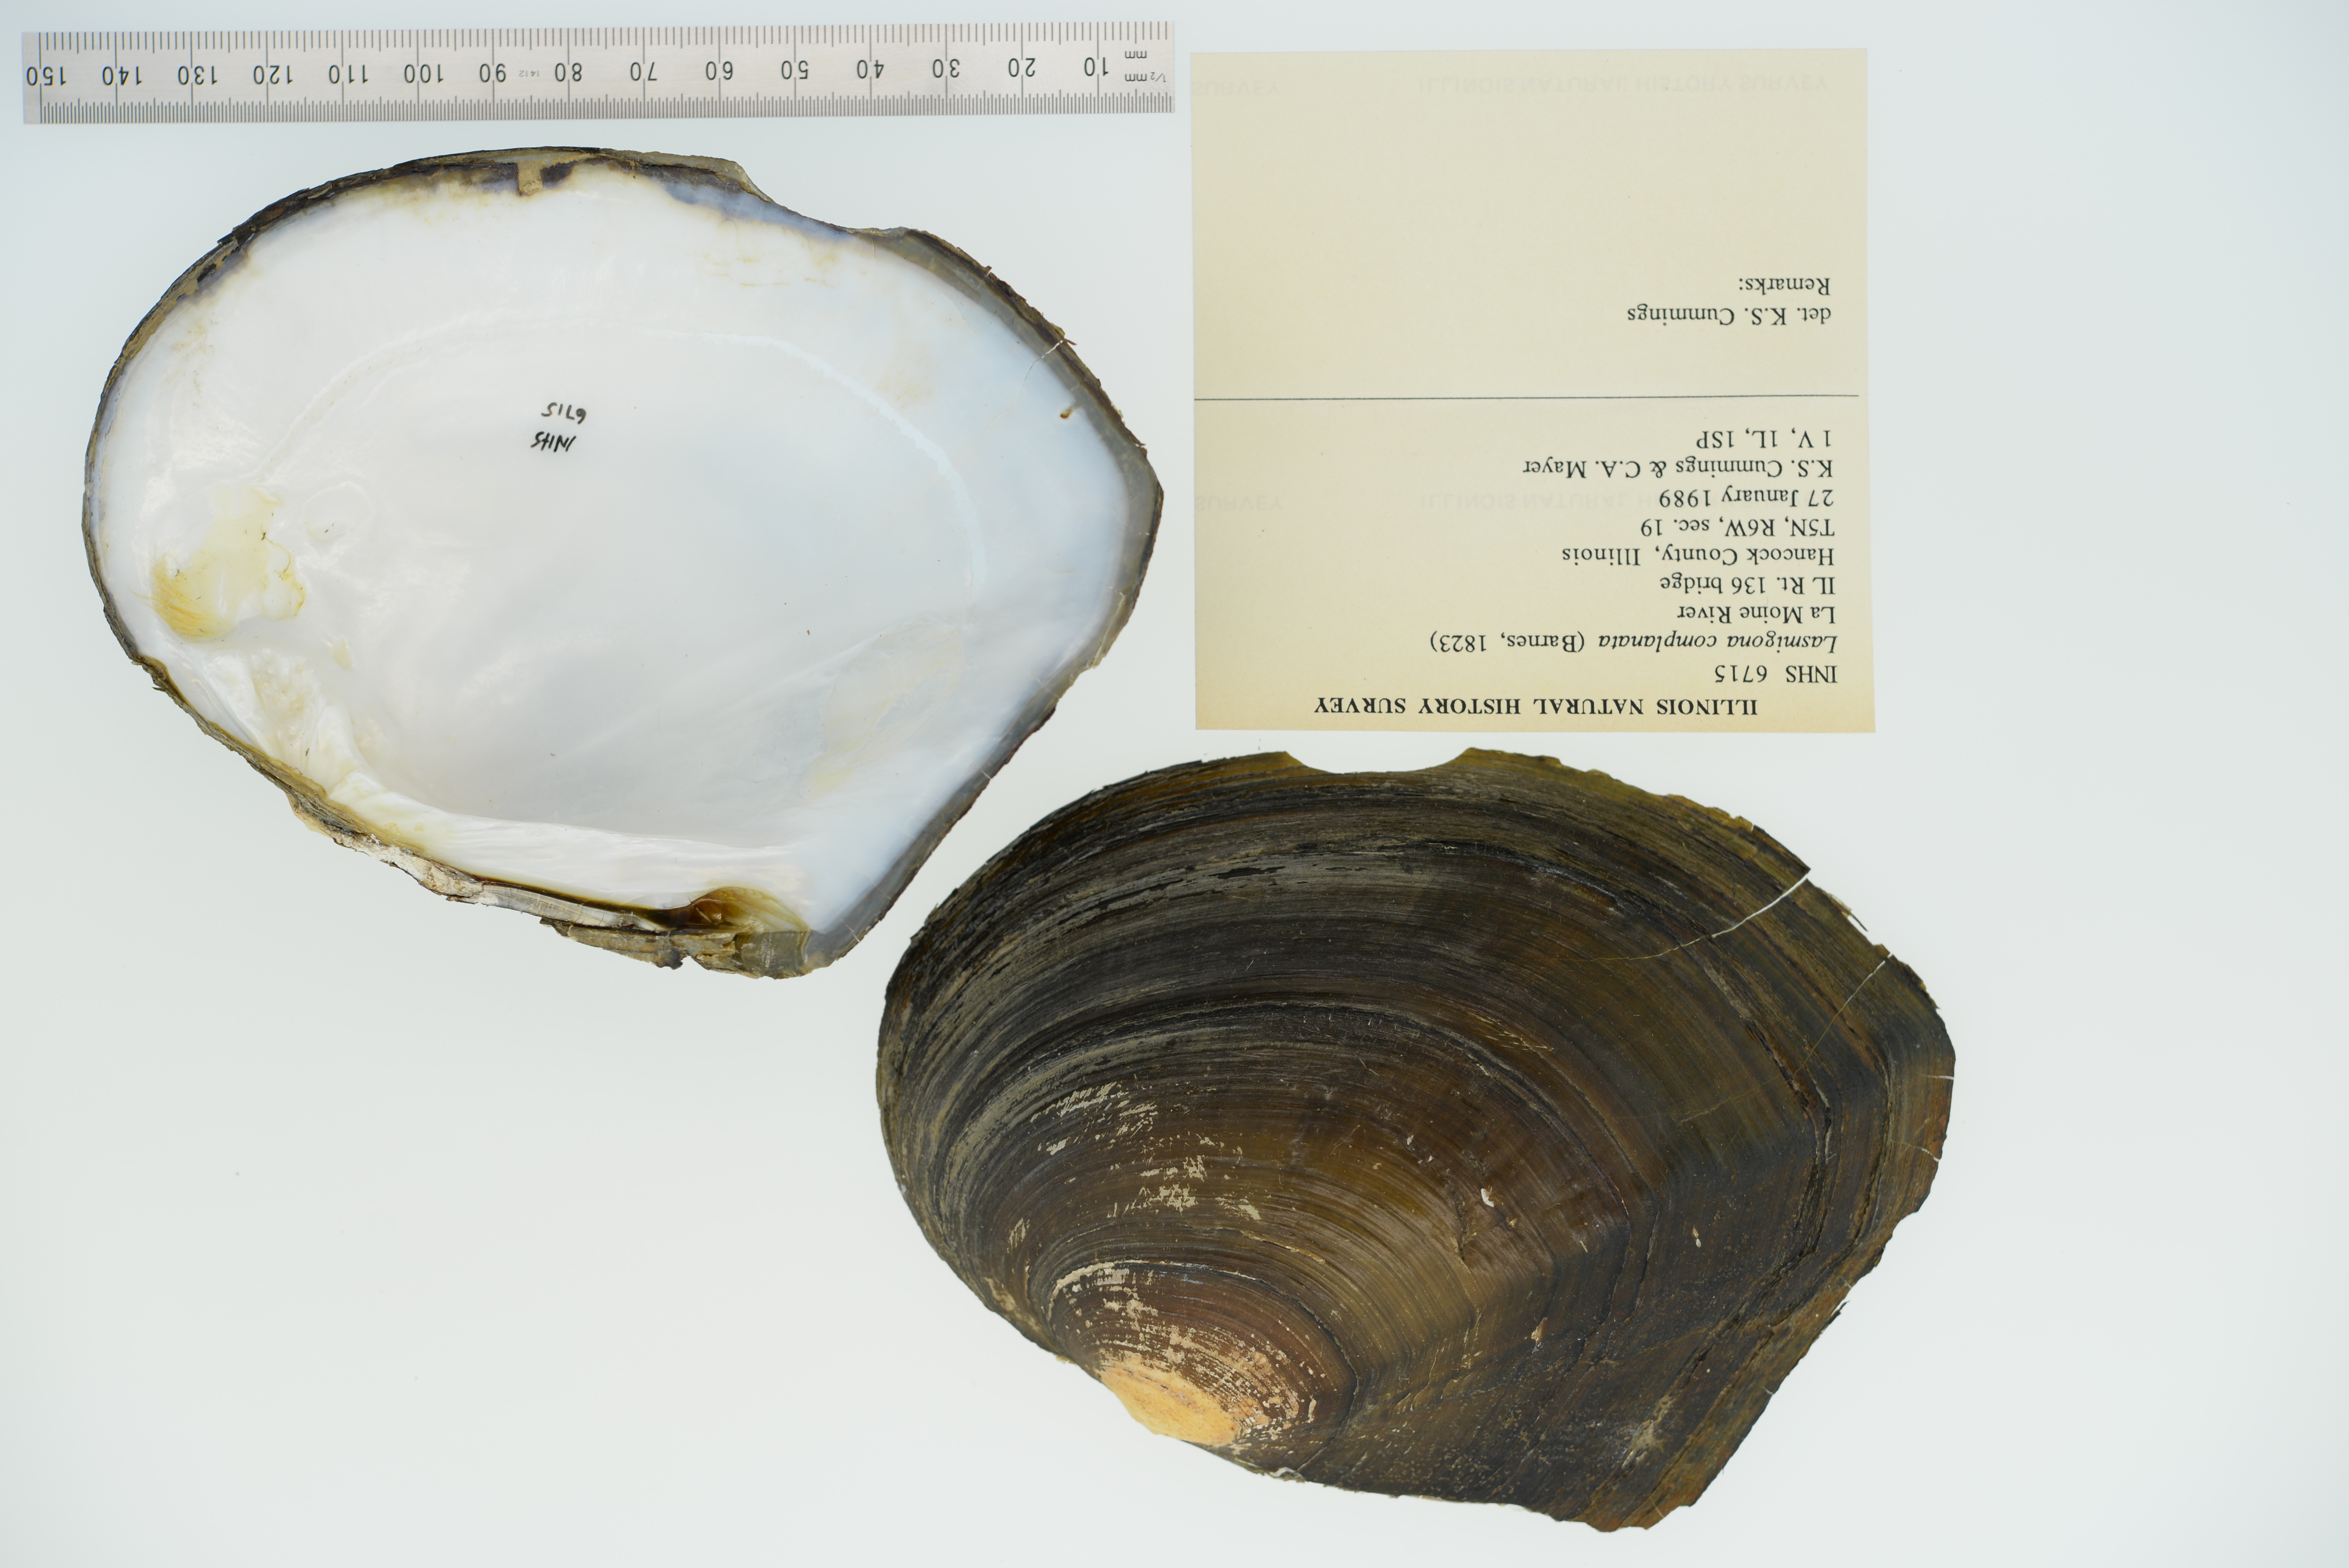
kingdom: Animalia
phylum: Mollusca
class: Bivalvia
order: Unionida
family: Unionidae
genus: Lasmigona
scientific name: Lasmigona complanata
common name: White heelsplitter
